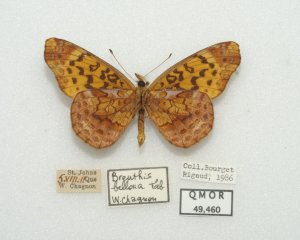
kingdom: Animalia
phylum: Arthropoda
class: Insecta
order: Lepidoptera
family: Nymphalidae
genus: Clossiana
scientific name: Clossiana toddi
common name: Meadow Fritillary
